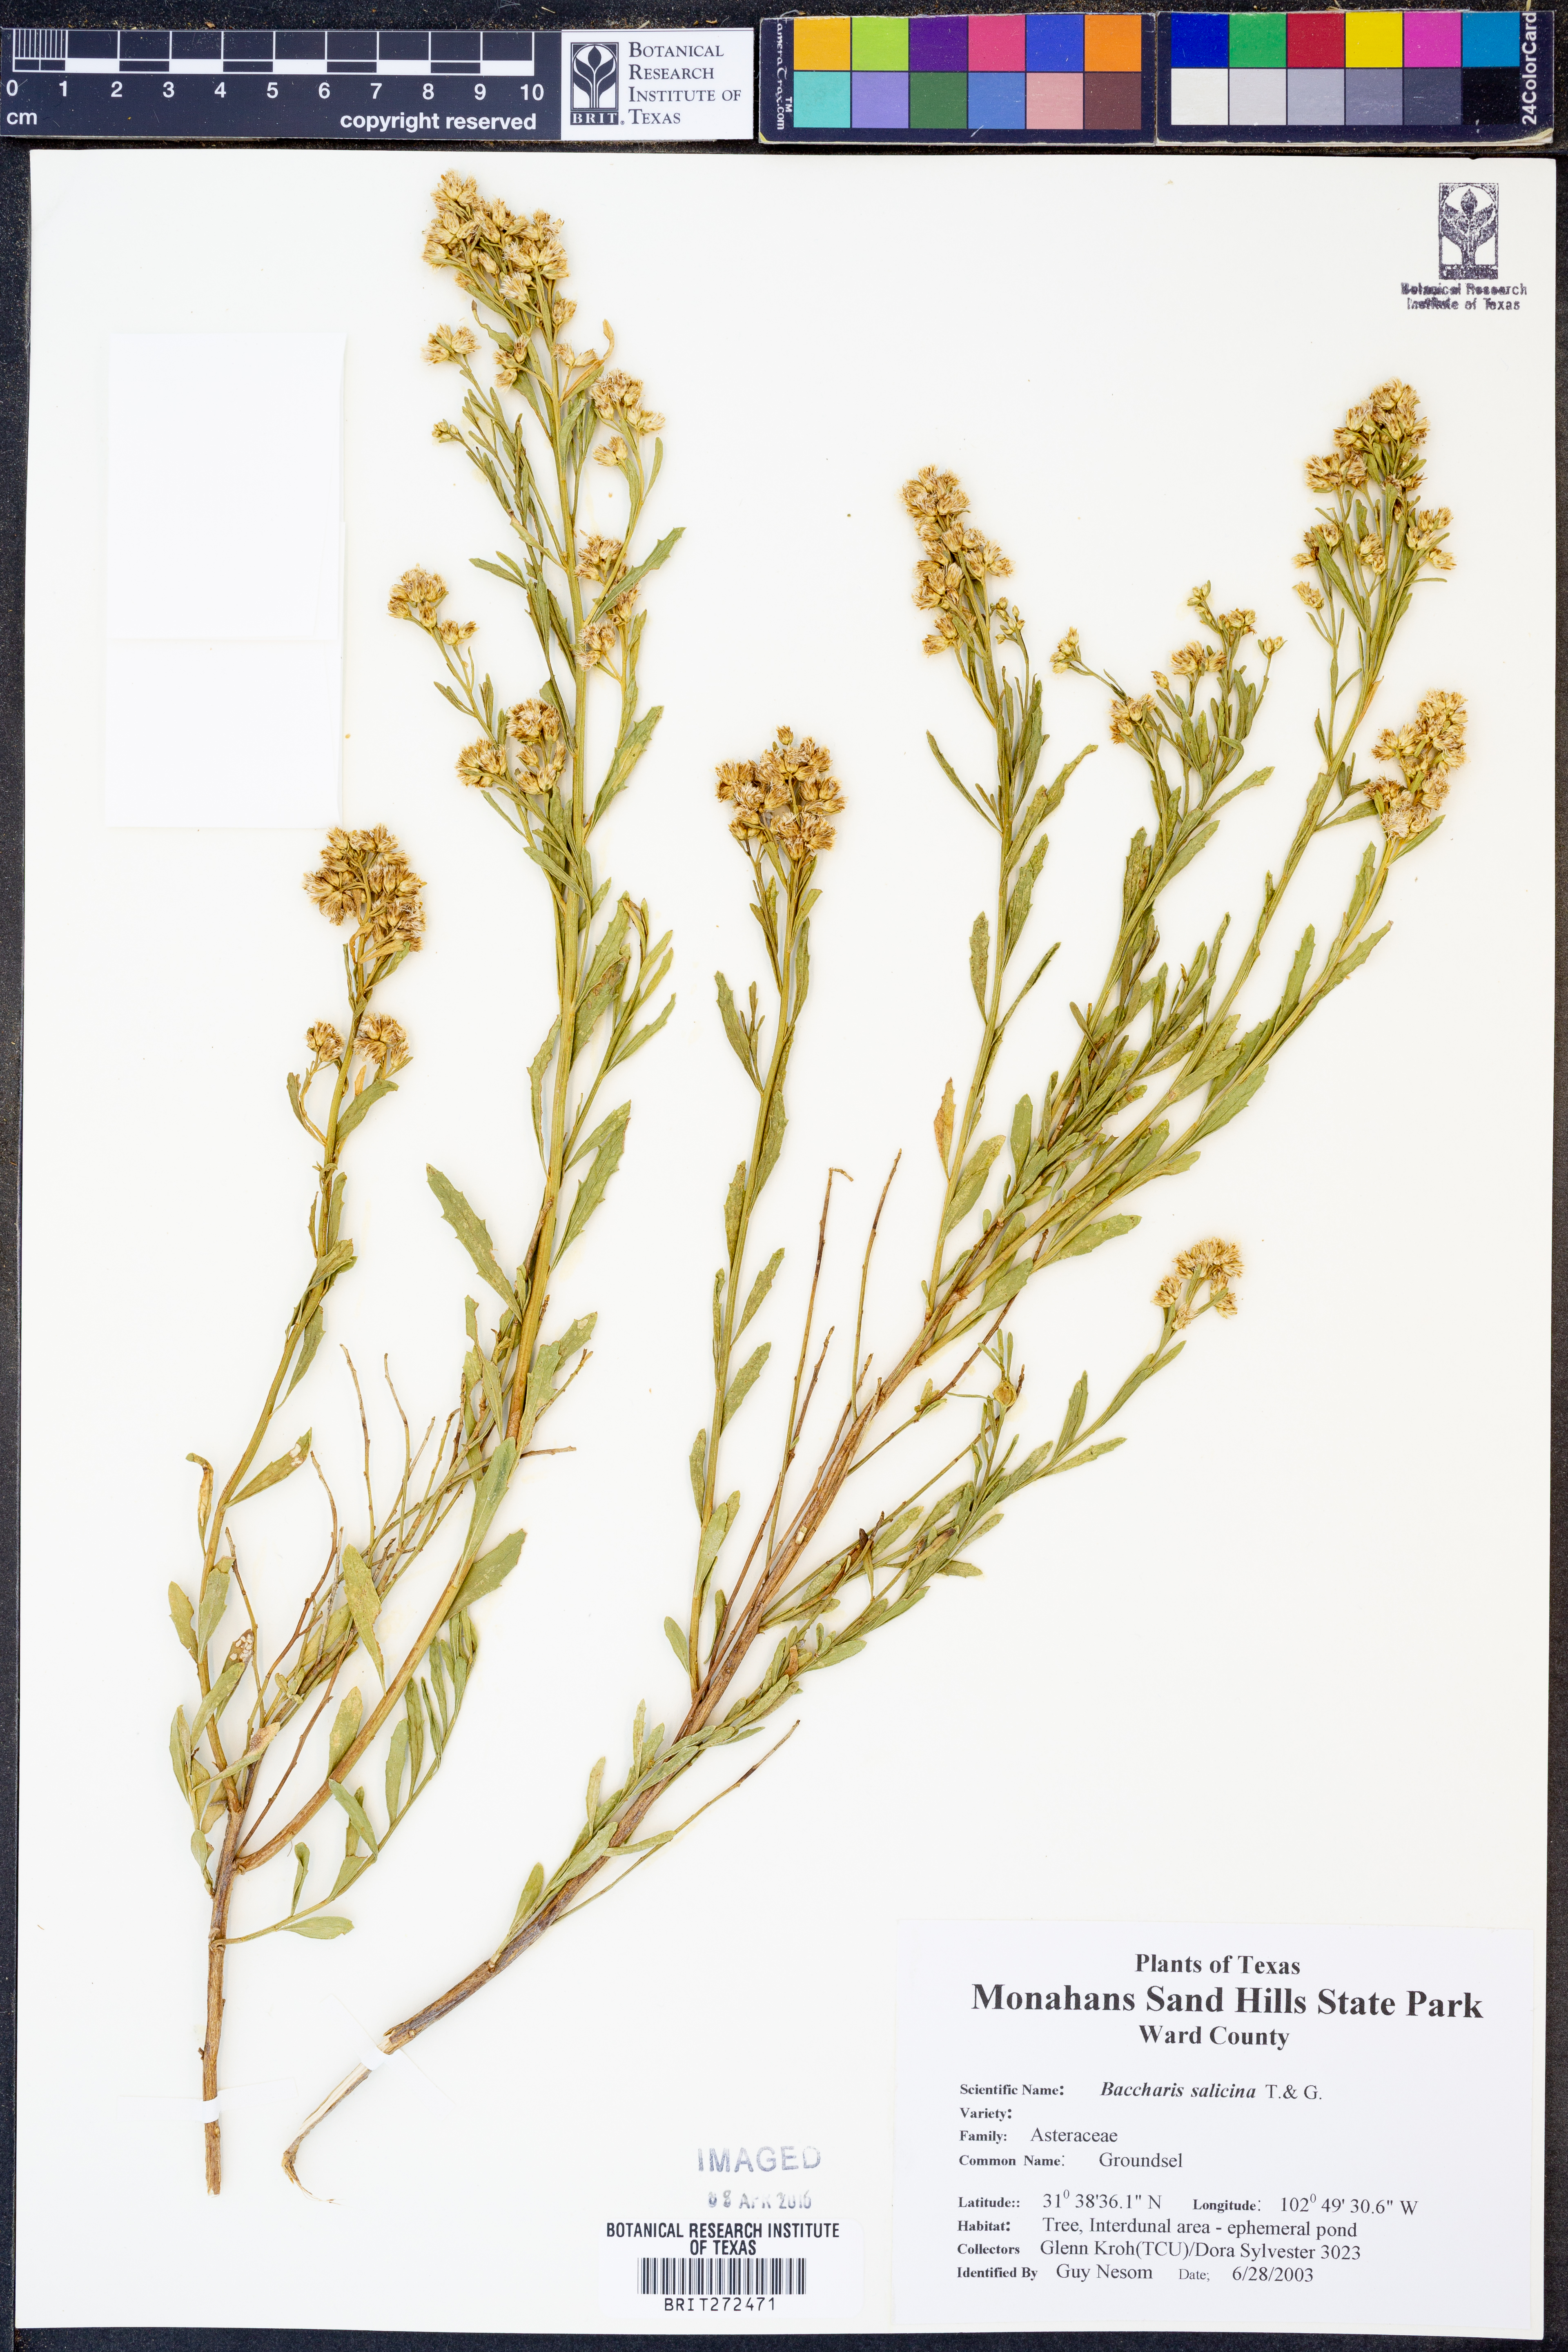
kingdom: Plantae
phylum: Tracheophyta
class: Magnoliopsida
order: Asterales
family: Asteraceae
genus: Baccharis
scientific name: Baccharis salicina
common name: Willow baccharis
